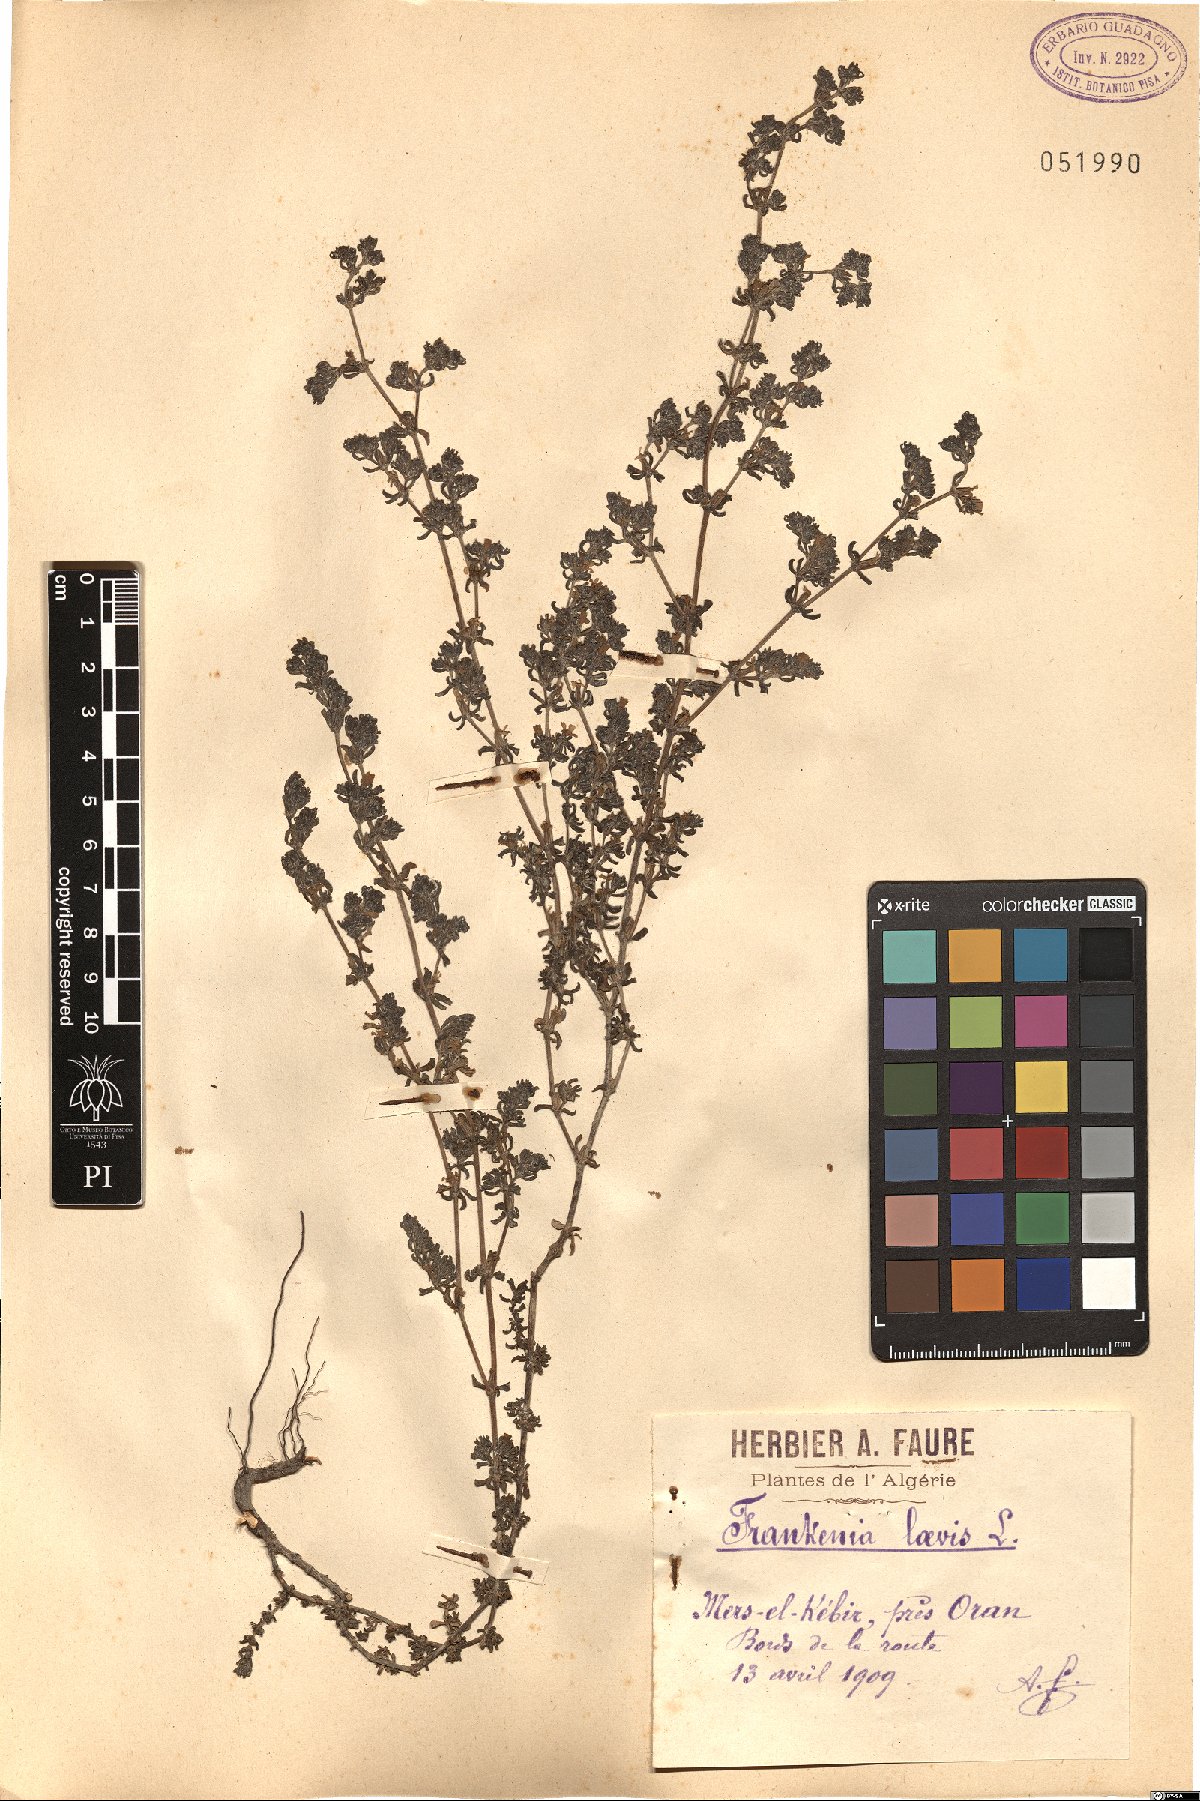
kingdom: Plantae
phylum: Tracheophyta
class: Magnoliopsida
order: Caryophyllales
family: Frankeniaceae
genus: Frankenia
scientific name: Frankenia laevis
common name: Sea-heath
